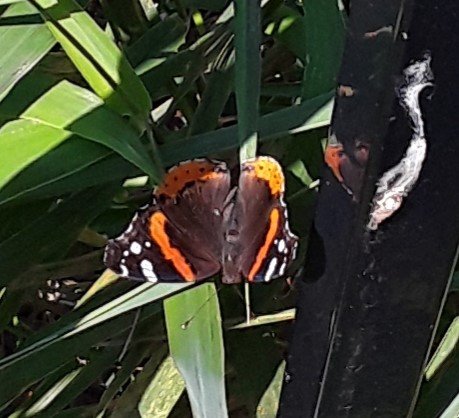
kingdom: Animalia
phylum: Arthropoda
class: Insecta
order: Lepidoptera
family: Nymphalidae
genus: Vanessa
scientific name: Vanessa atalanta
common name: Red Admiral
